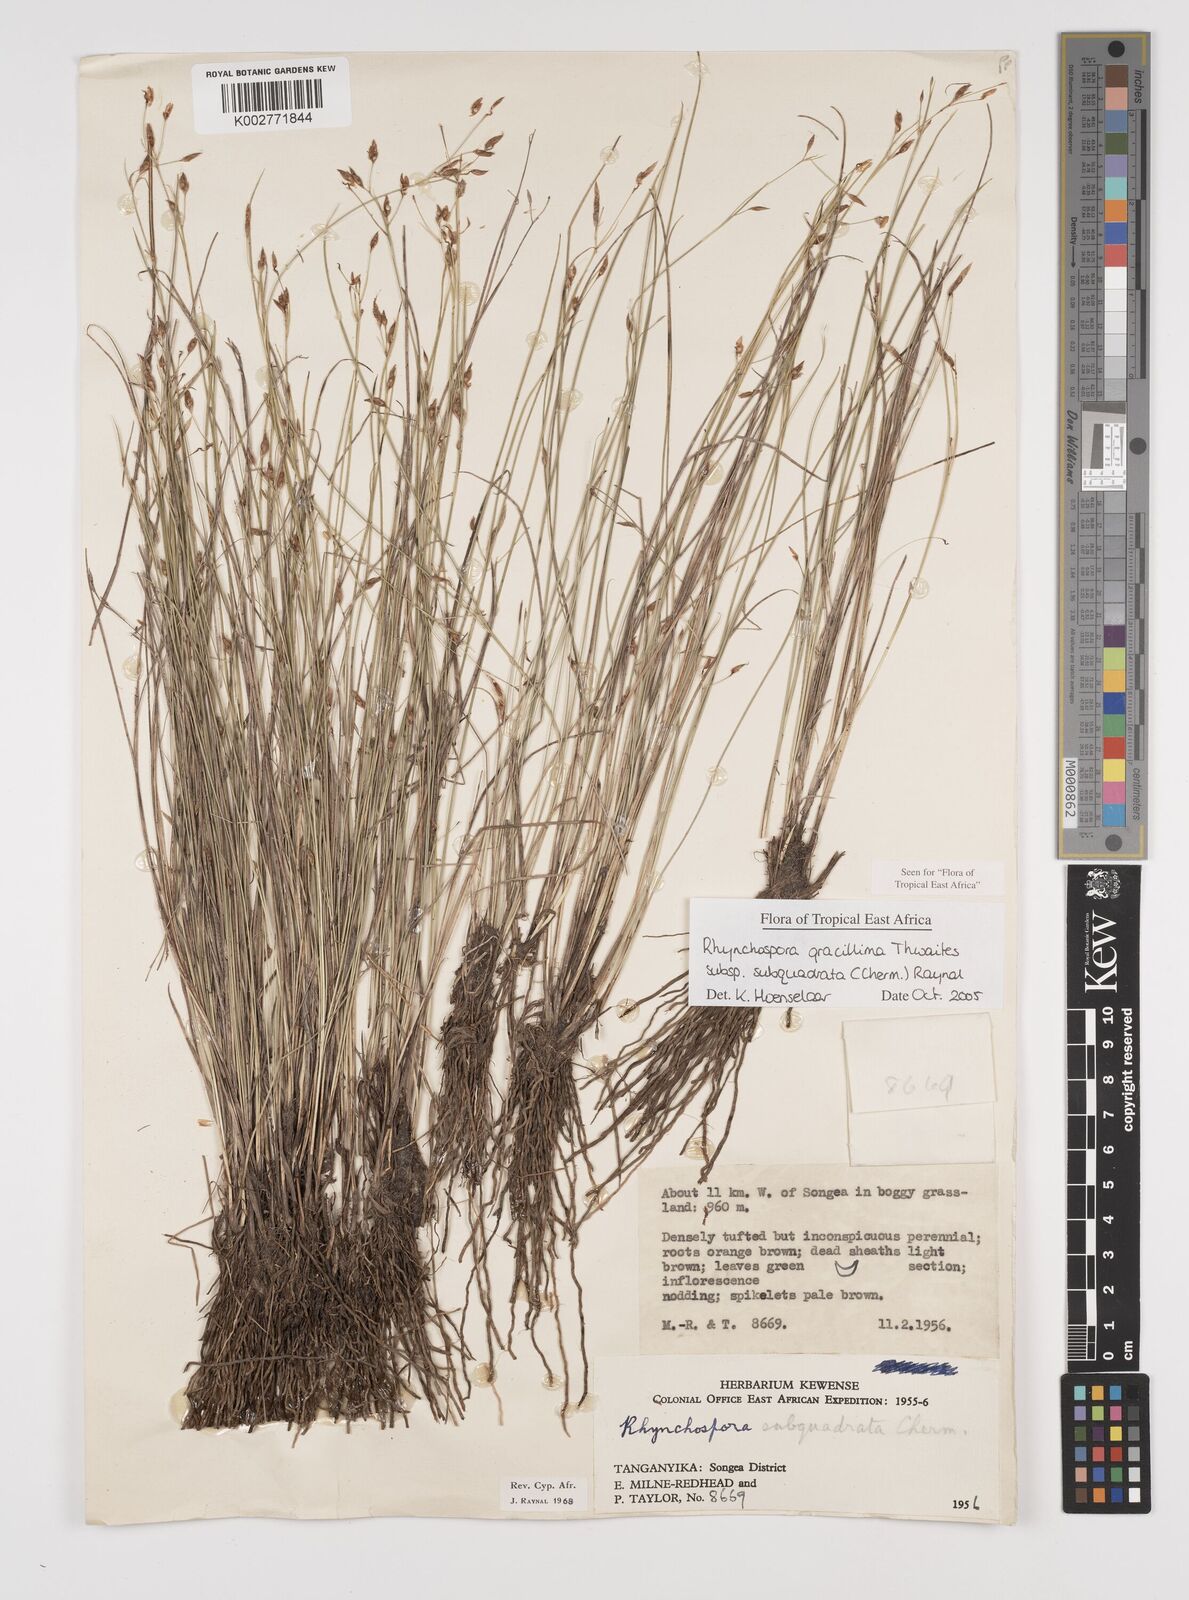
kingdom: Plantae
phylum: Tracheophyta
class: Liliopsida
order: Poales
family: Cyperaceae
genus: Rhynchospora
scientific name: Rhynchospora gracillima
